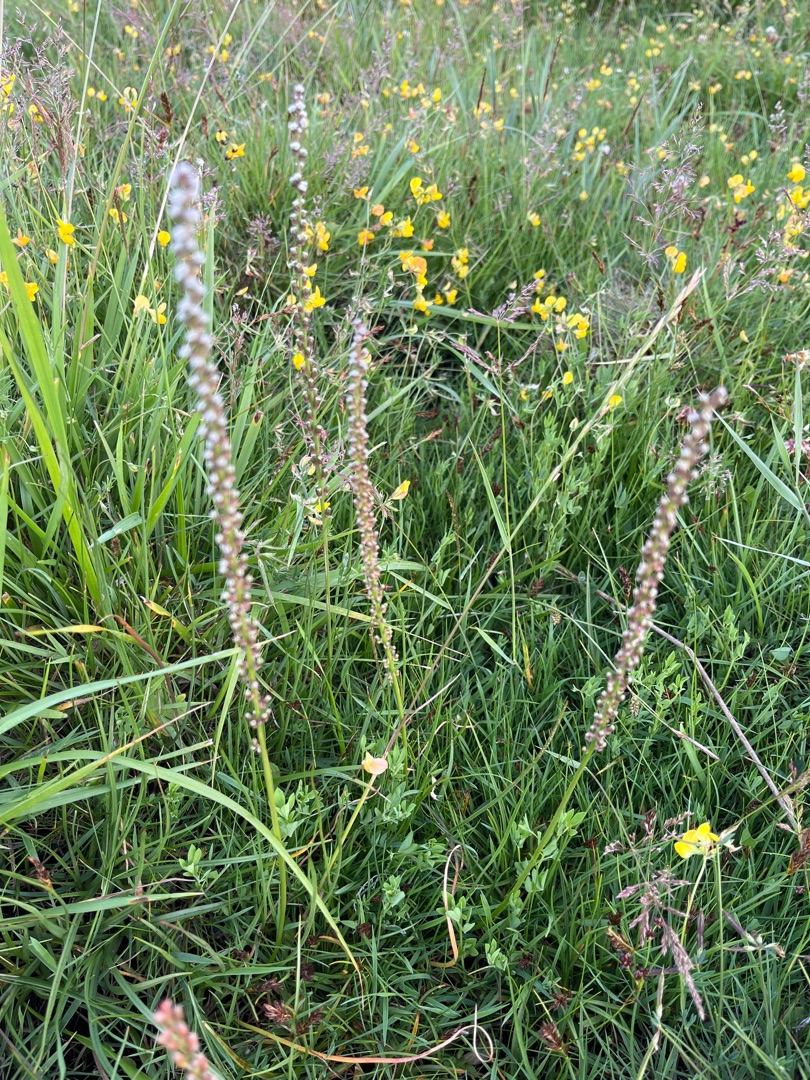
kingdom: Plantae
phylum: Tracheophyta
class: Liliopsida
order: Alismatales
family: Juncaginaceae
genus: Triglochin
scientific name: Triglochin maritima
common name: Strand-trehage
